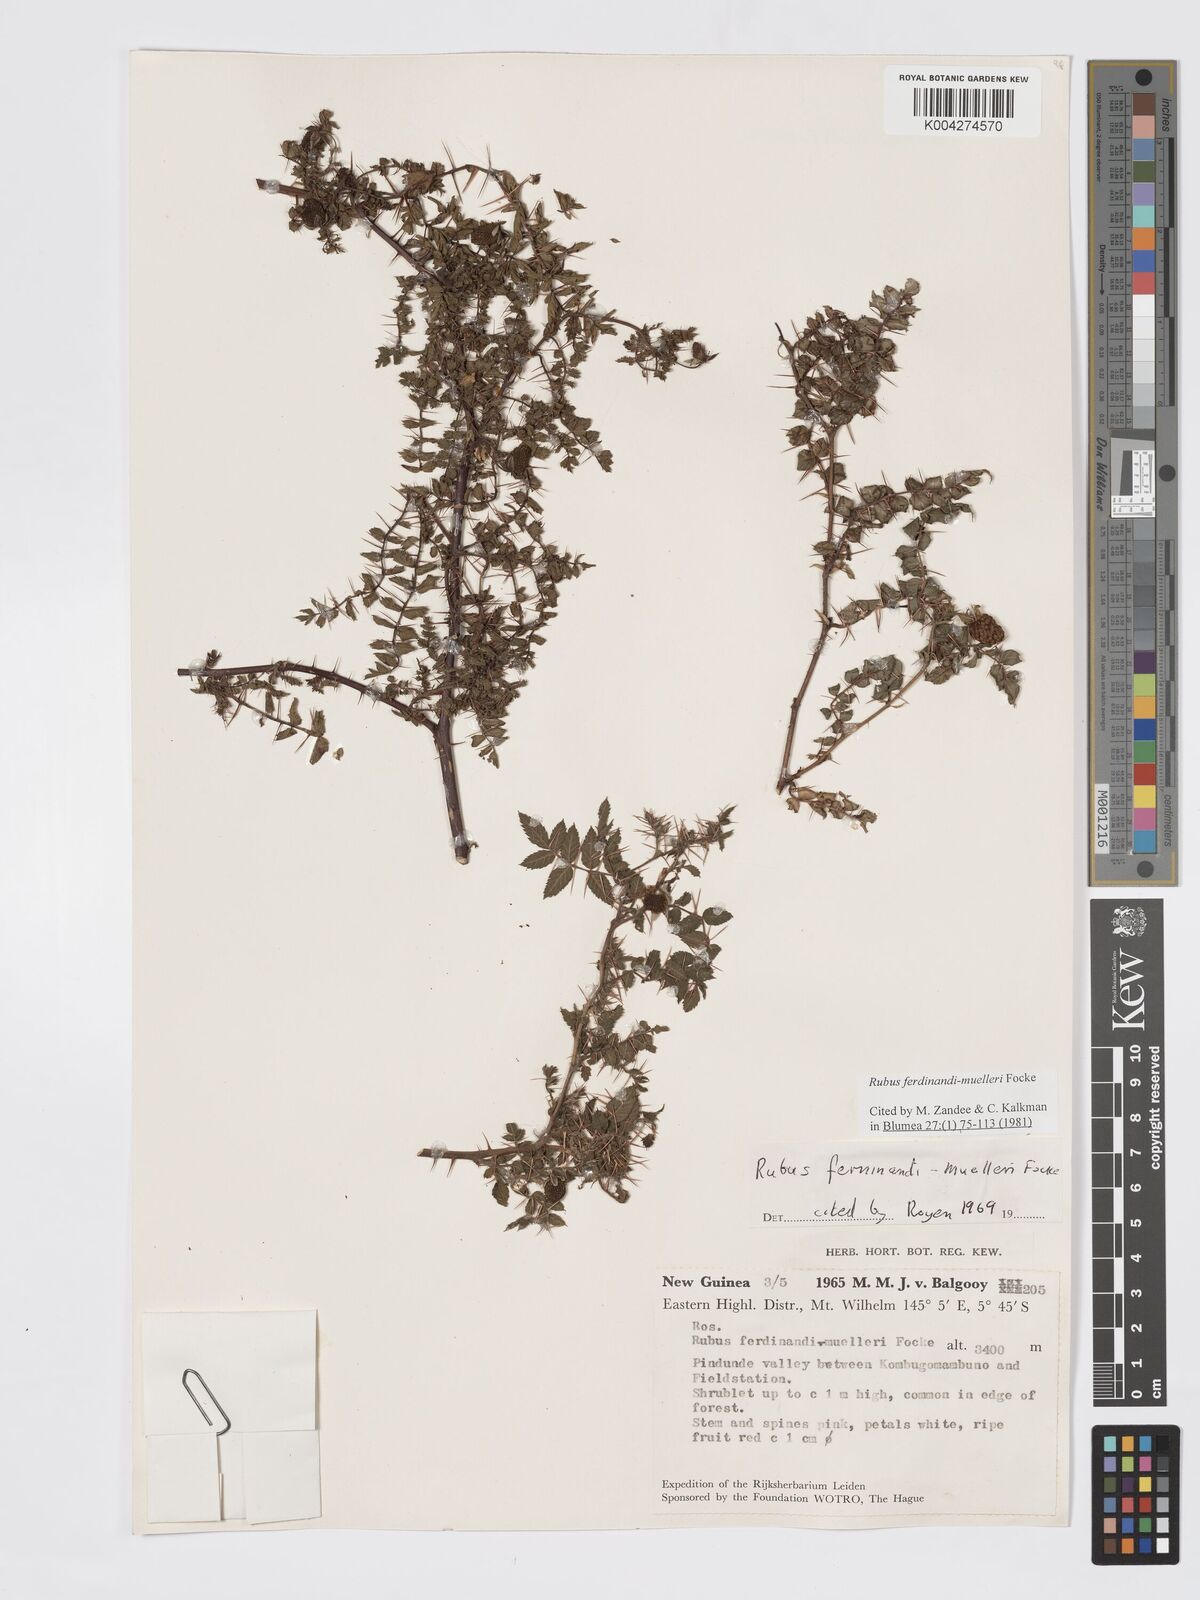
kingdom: Plantae
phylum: Tracheophyta
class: Magnoliopsida
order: Rosales
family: Rosaceae
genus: Rubus
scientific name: Rubus ferdinandimuelleri
